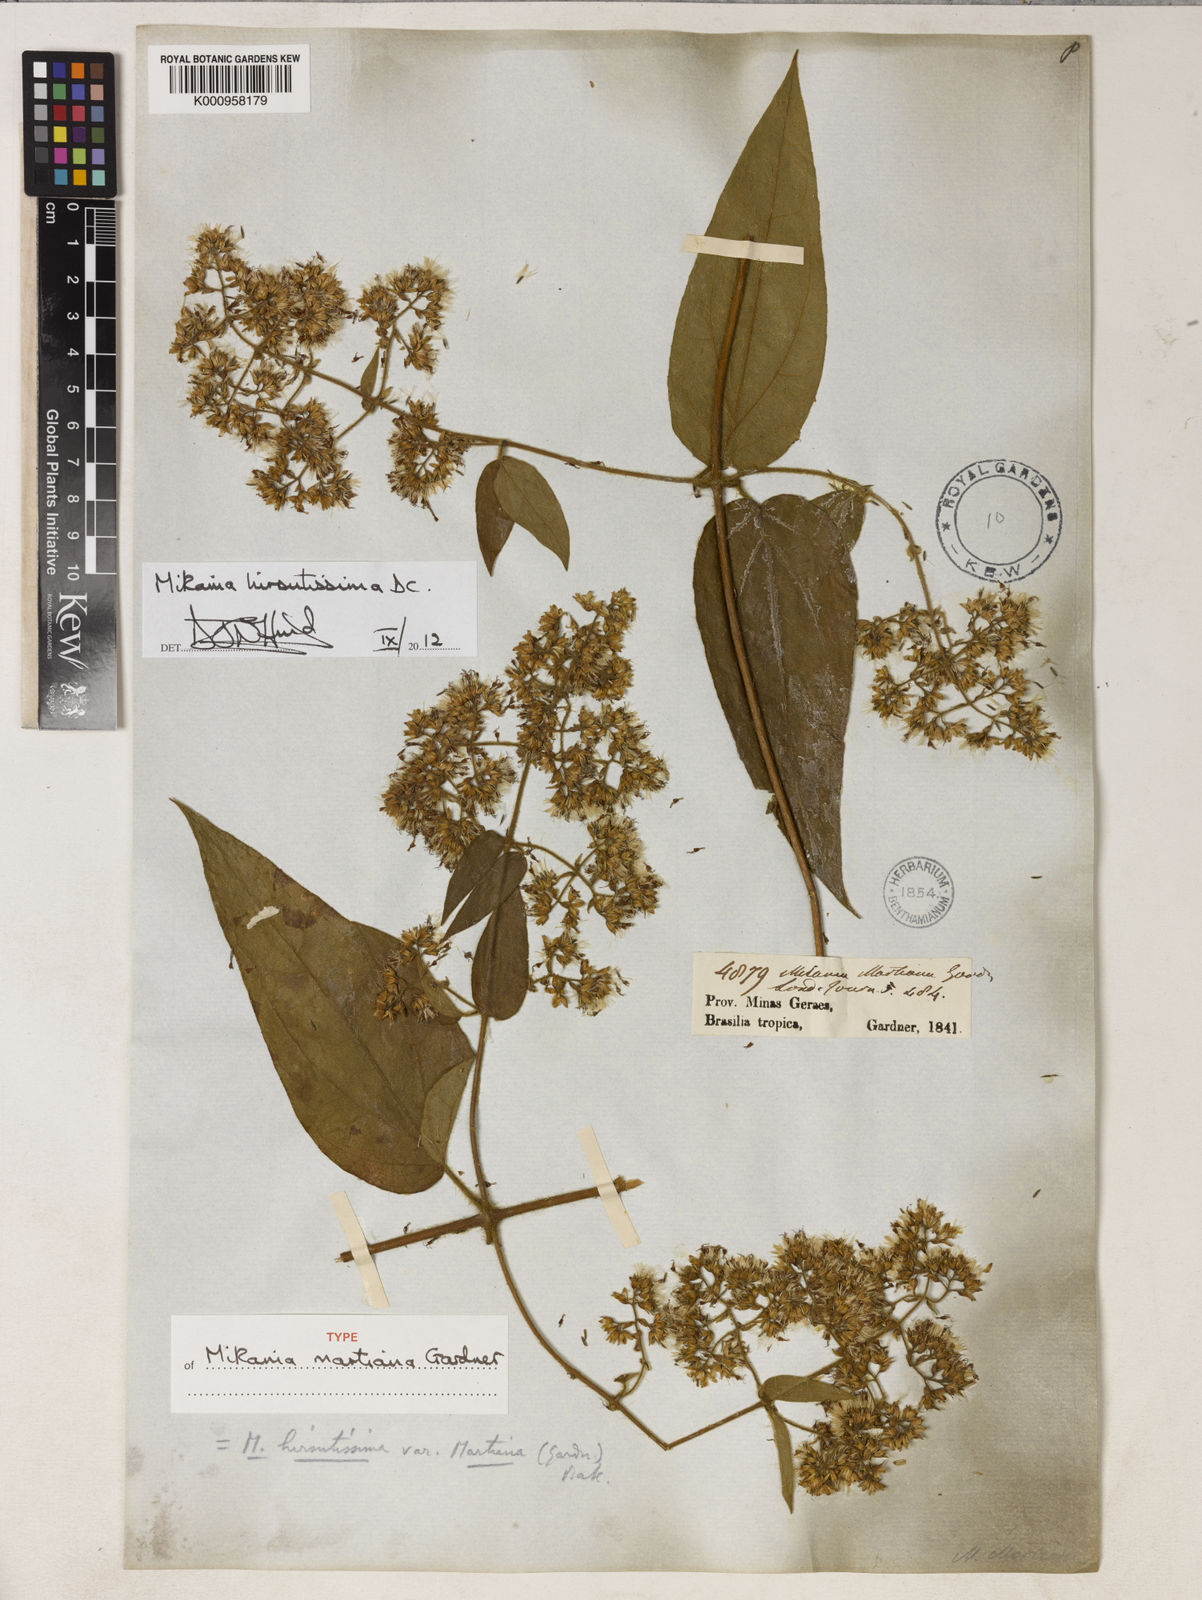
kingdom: Plantae
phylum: Tracheophyta
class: Magnoliopsida
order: Asterales
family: Asteraceae
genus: Mikania
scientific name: Mikania banisteriae
